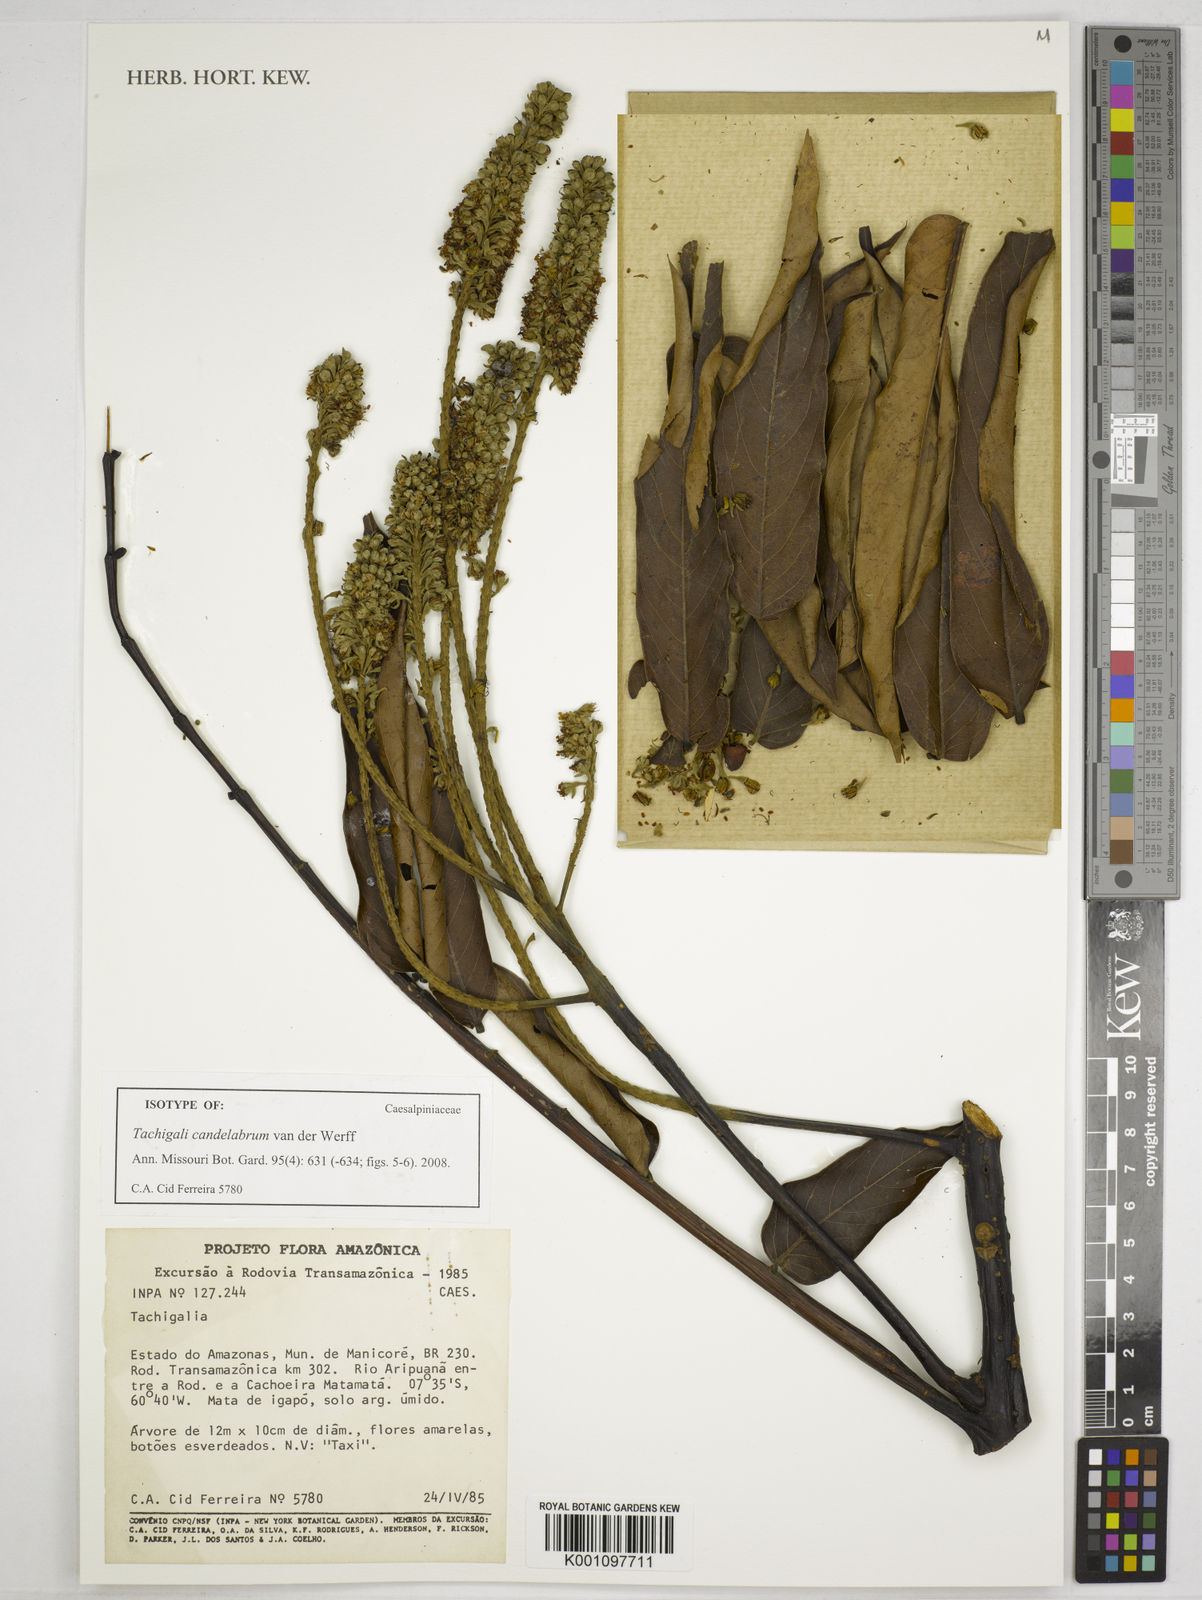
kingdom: Plantae
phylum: Tracheophyta
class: Magnoliopsida
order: Fabales
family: Fabaceae
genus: Tachigali
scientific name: Tachigali candelabrum
